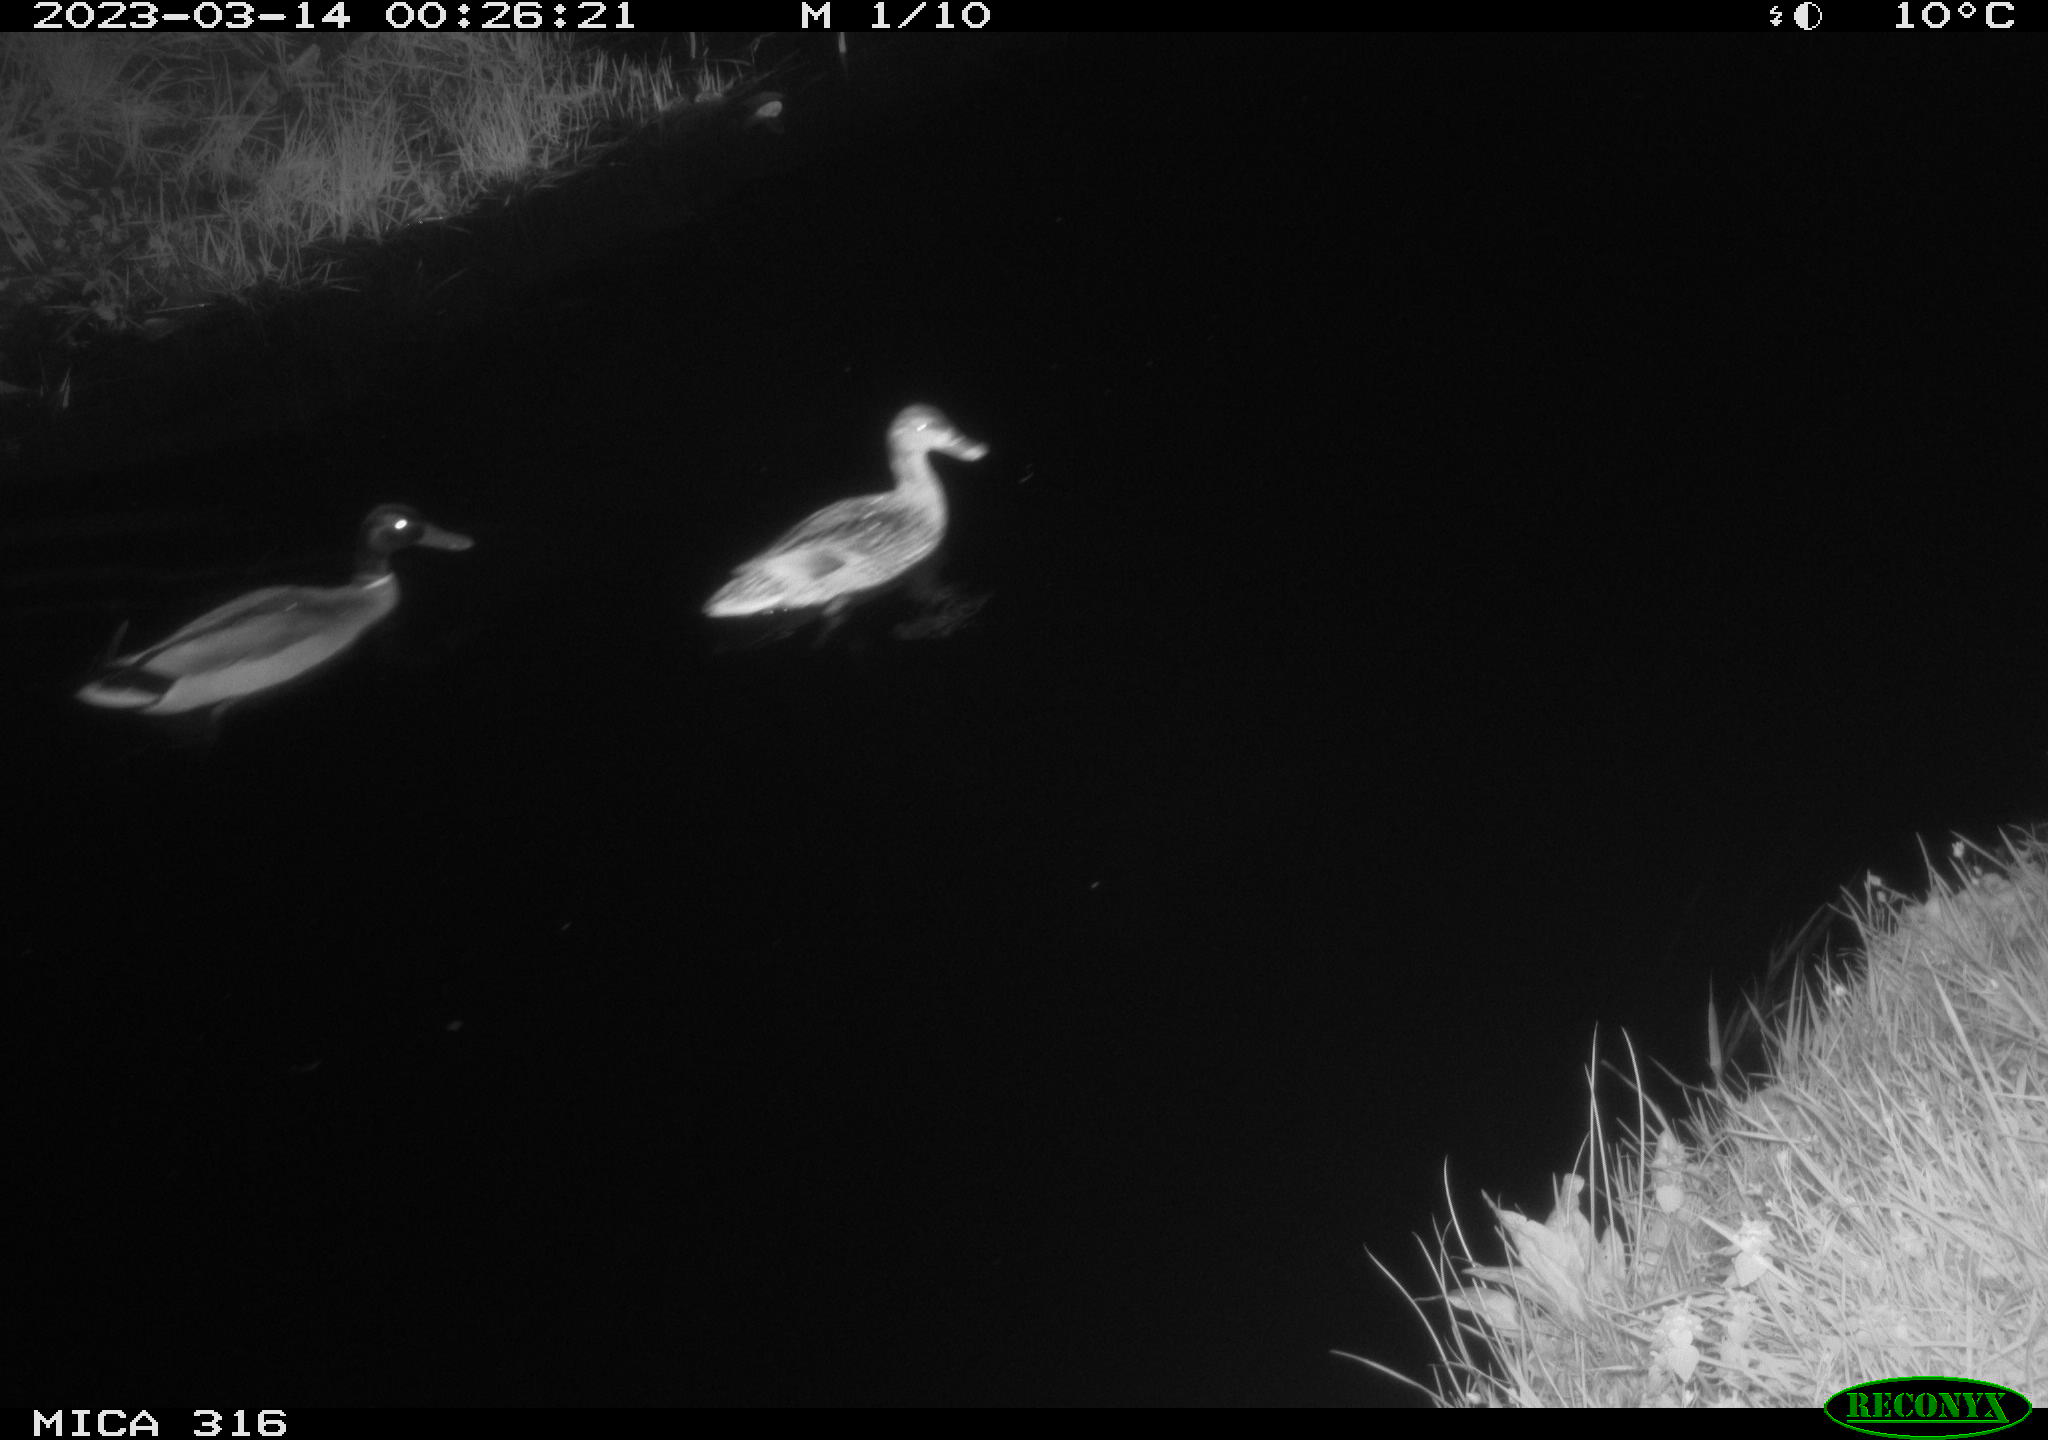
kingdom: Animalia
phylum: Chordata
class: Aves
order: Anseriformes
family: Anatidae
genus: Anas
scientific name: Anas
